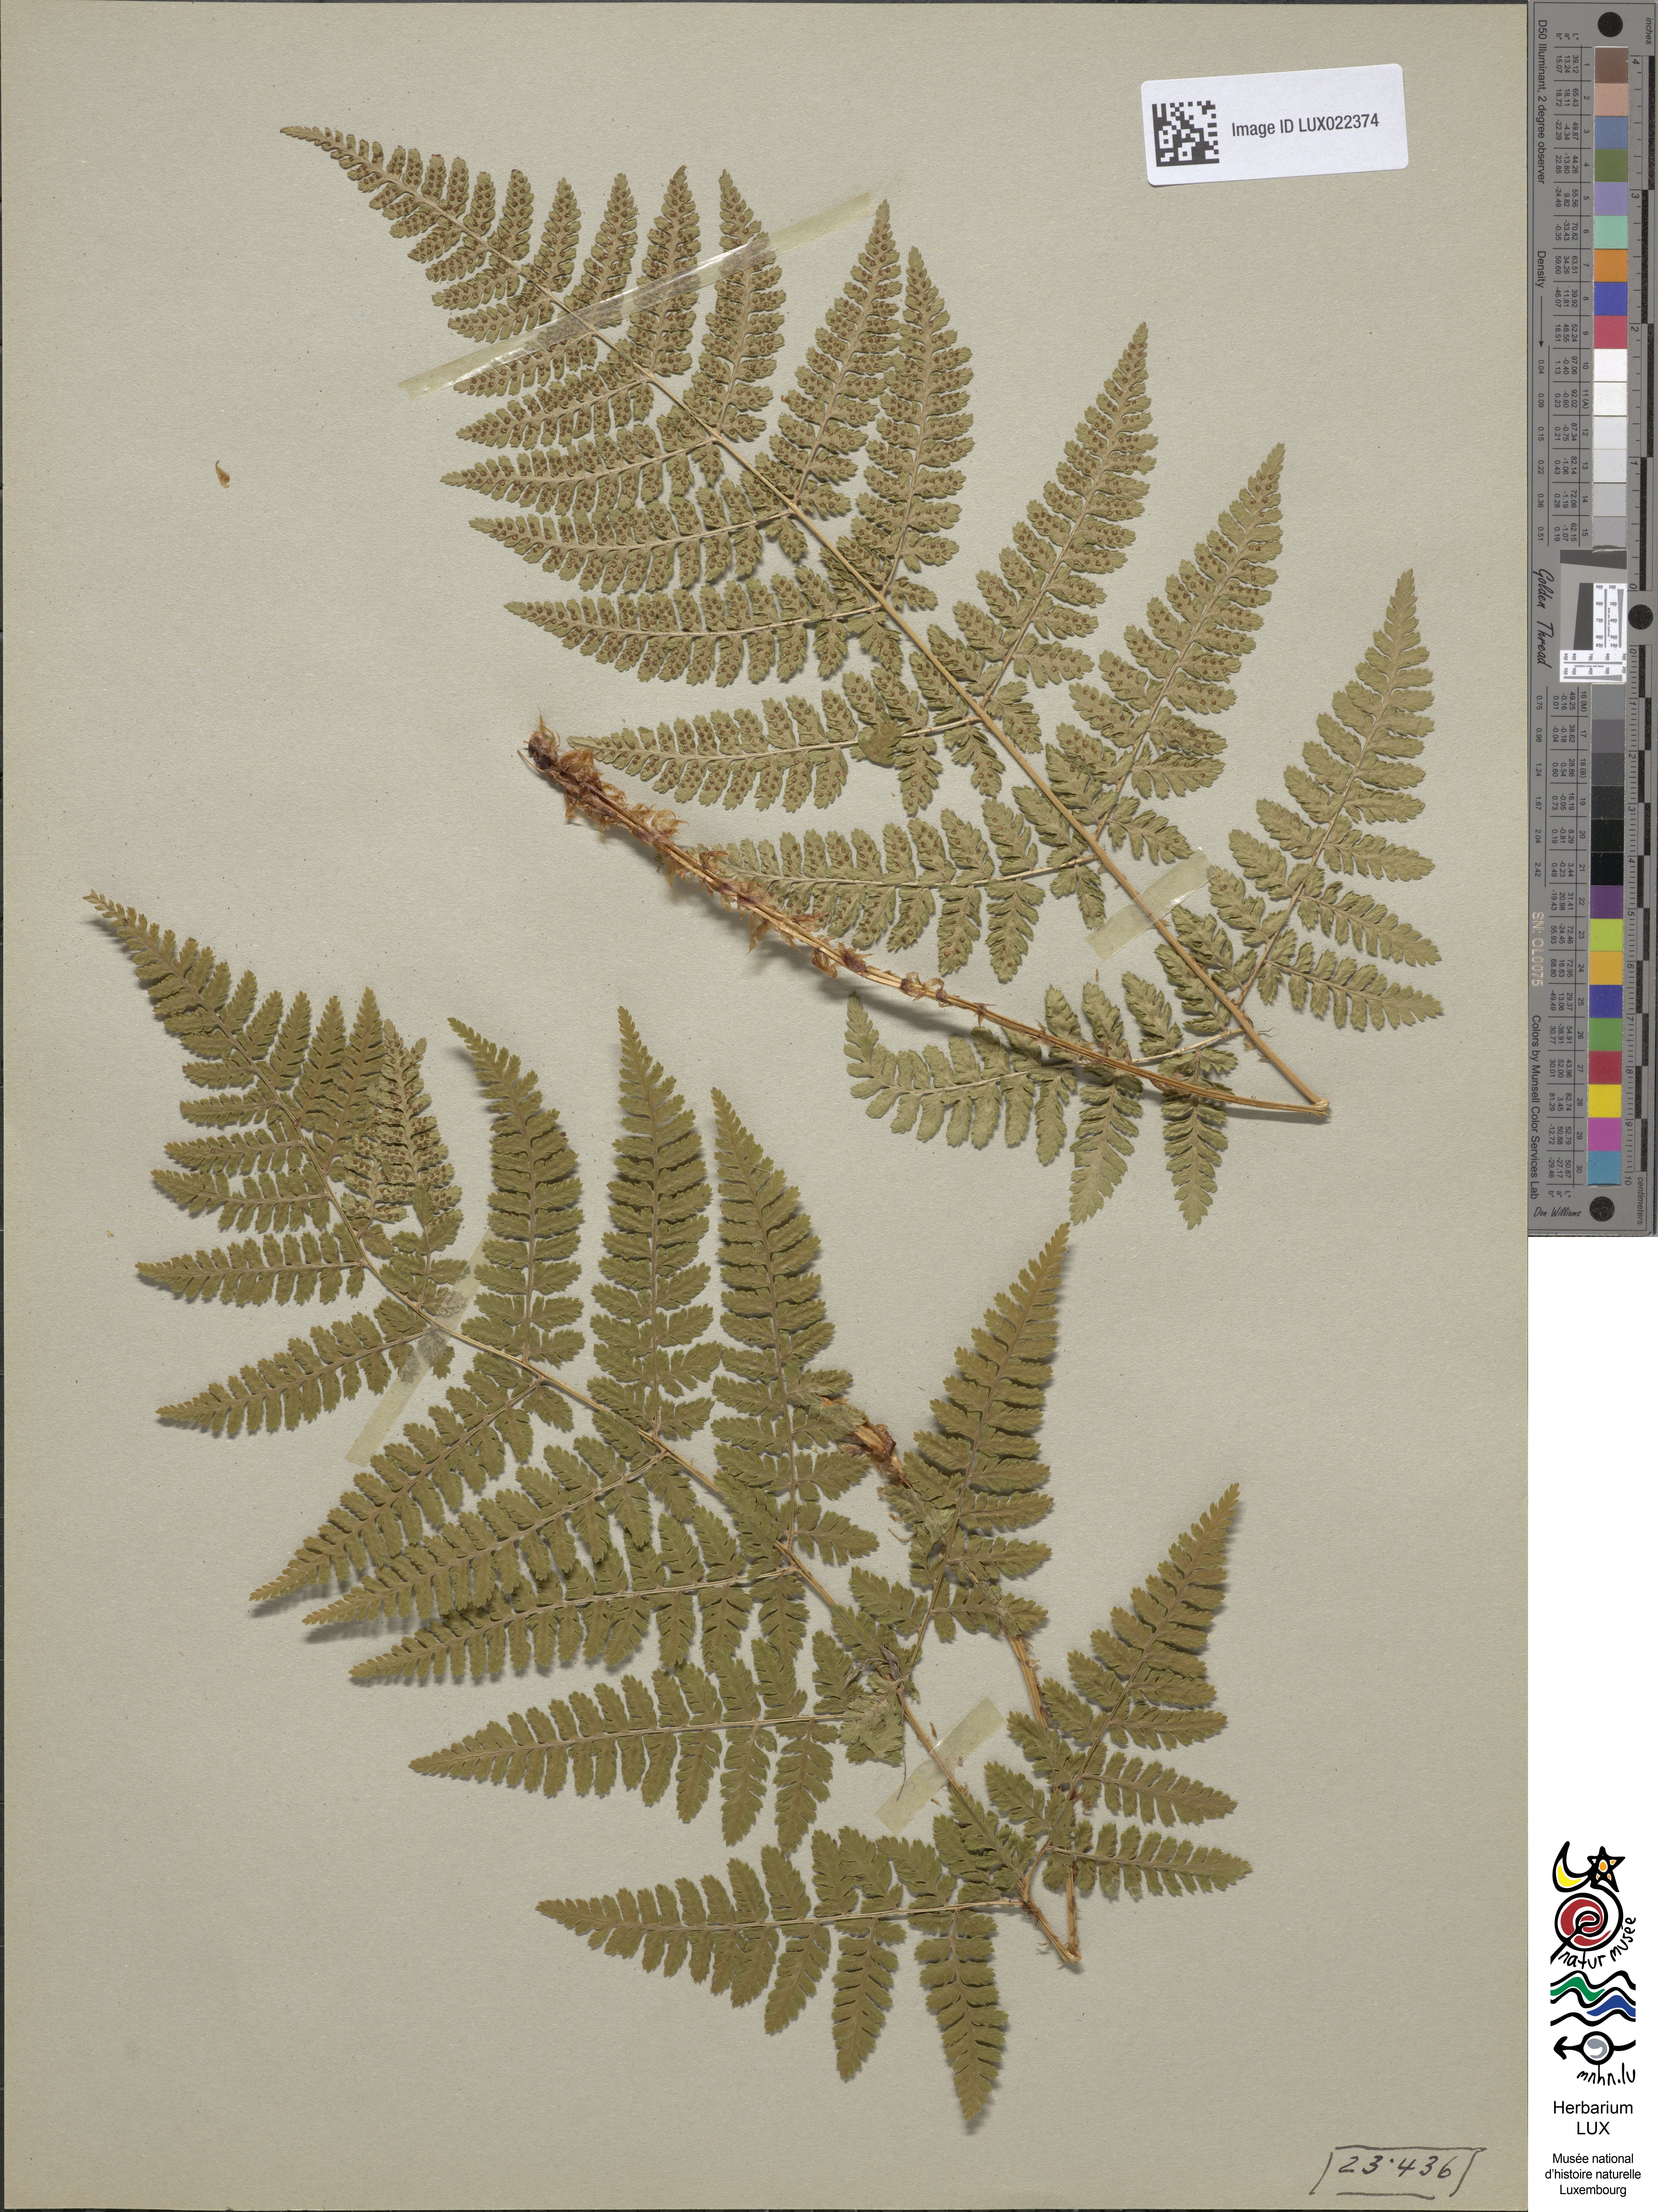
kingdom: Plantae
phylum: Tracheophyta
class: Polypodiopsida
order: Polypodiales
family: Dryopteridaceae
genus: Dryopteris
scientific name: Dryopteris dilatata
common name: Broad buckler-fern
